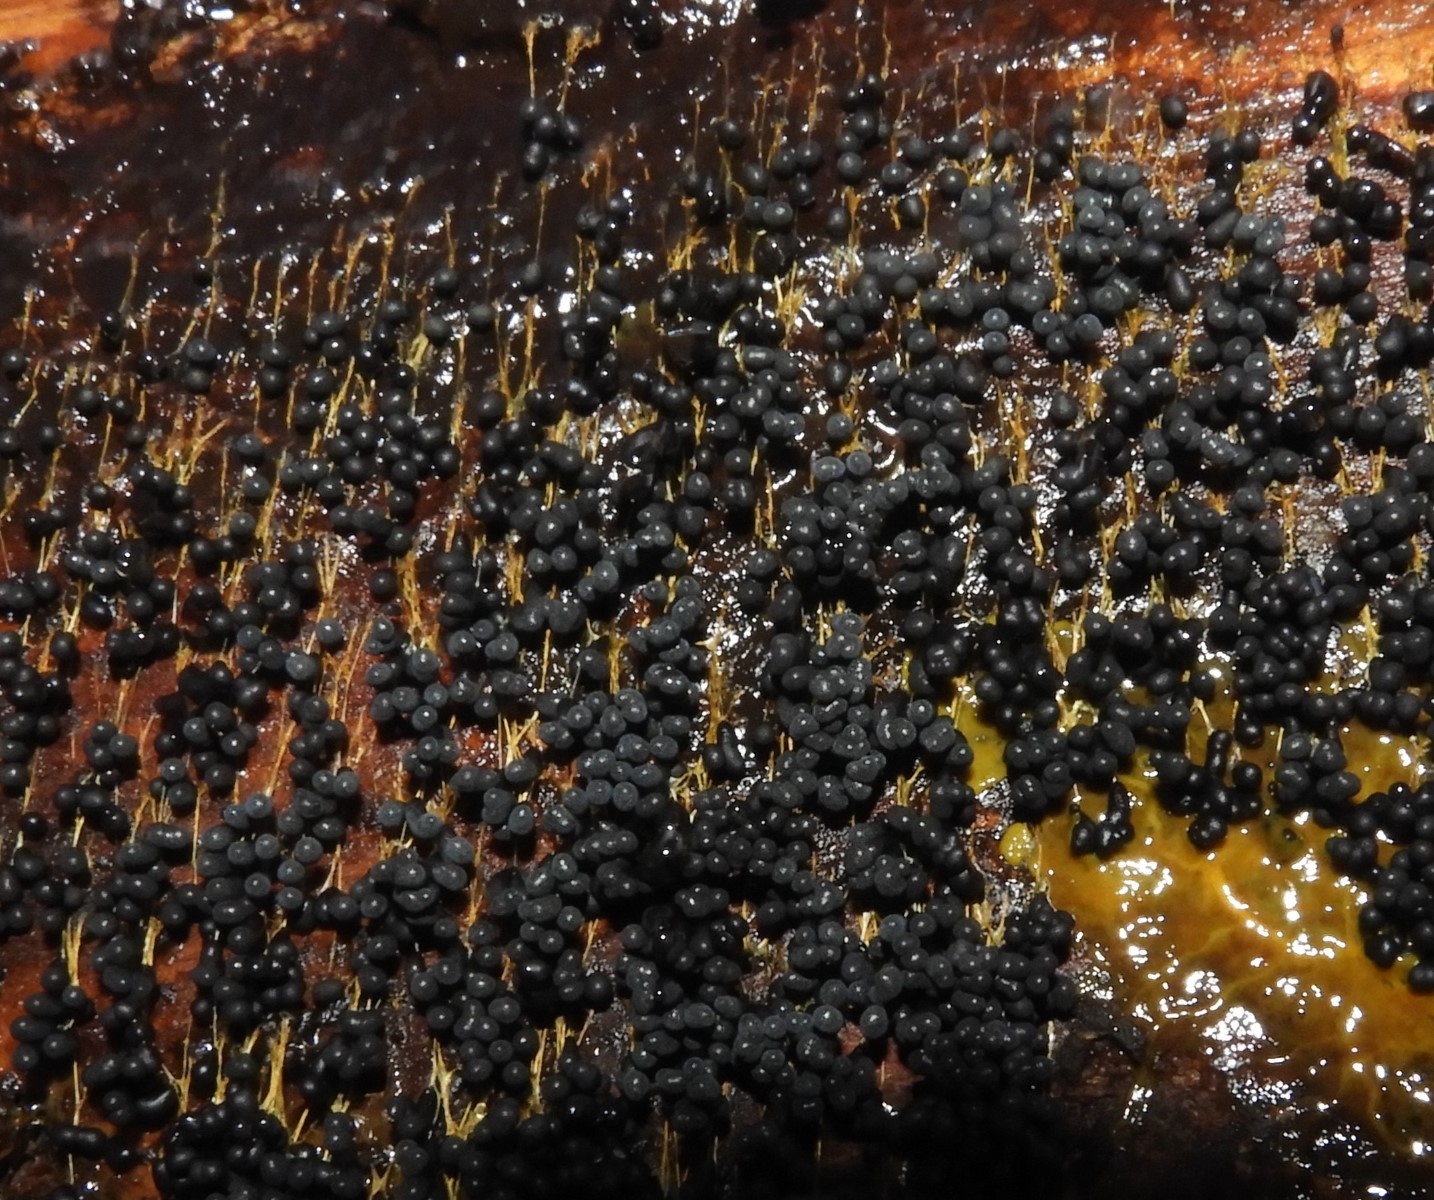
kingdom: Protozoa
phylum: Mycetozoa
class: Myxomycetes
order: Physarales
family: Physaraceae
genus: Badhamia
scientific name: Badhamia utricularis
